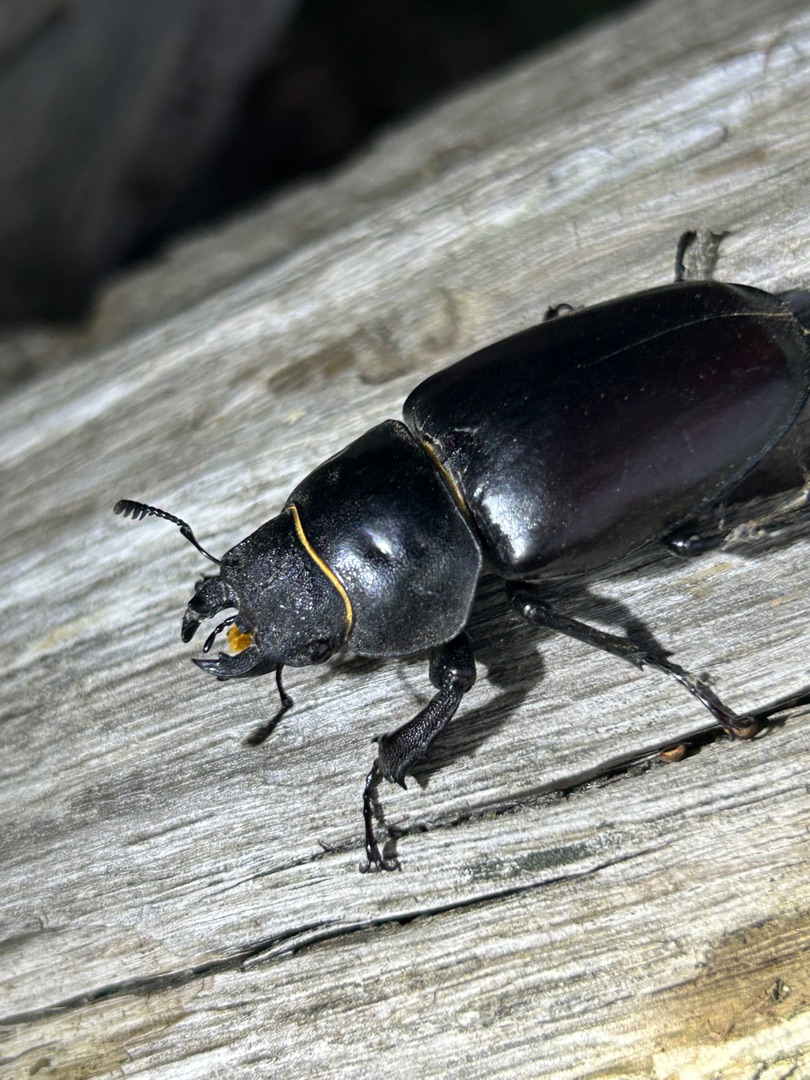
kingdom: Animalia
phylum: Arthropoda
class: Insecta
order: Coleoptera
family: Lucanidae
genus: Lucanus
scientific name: Lucanus cervus
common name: Eghjort
